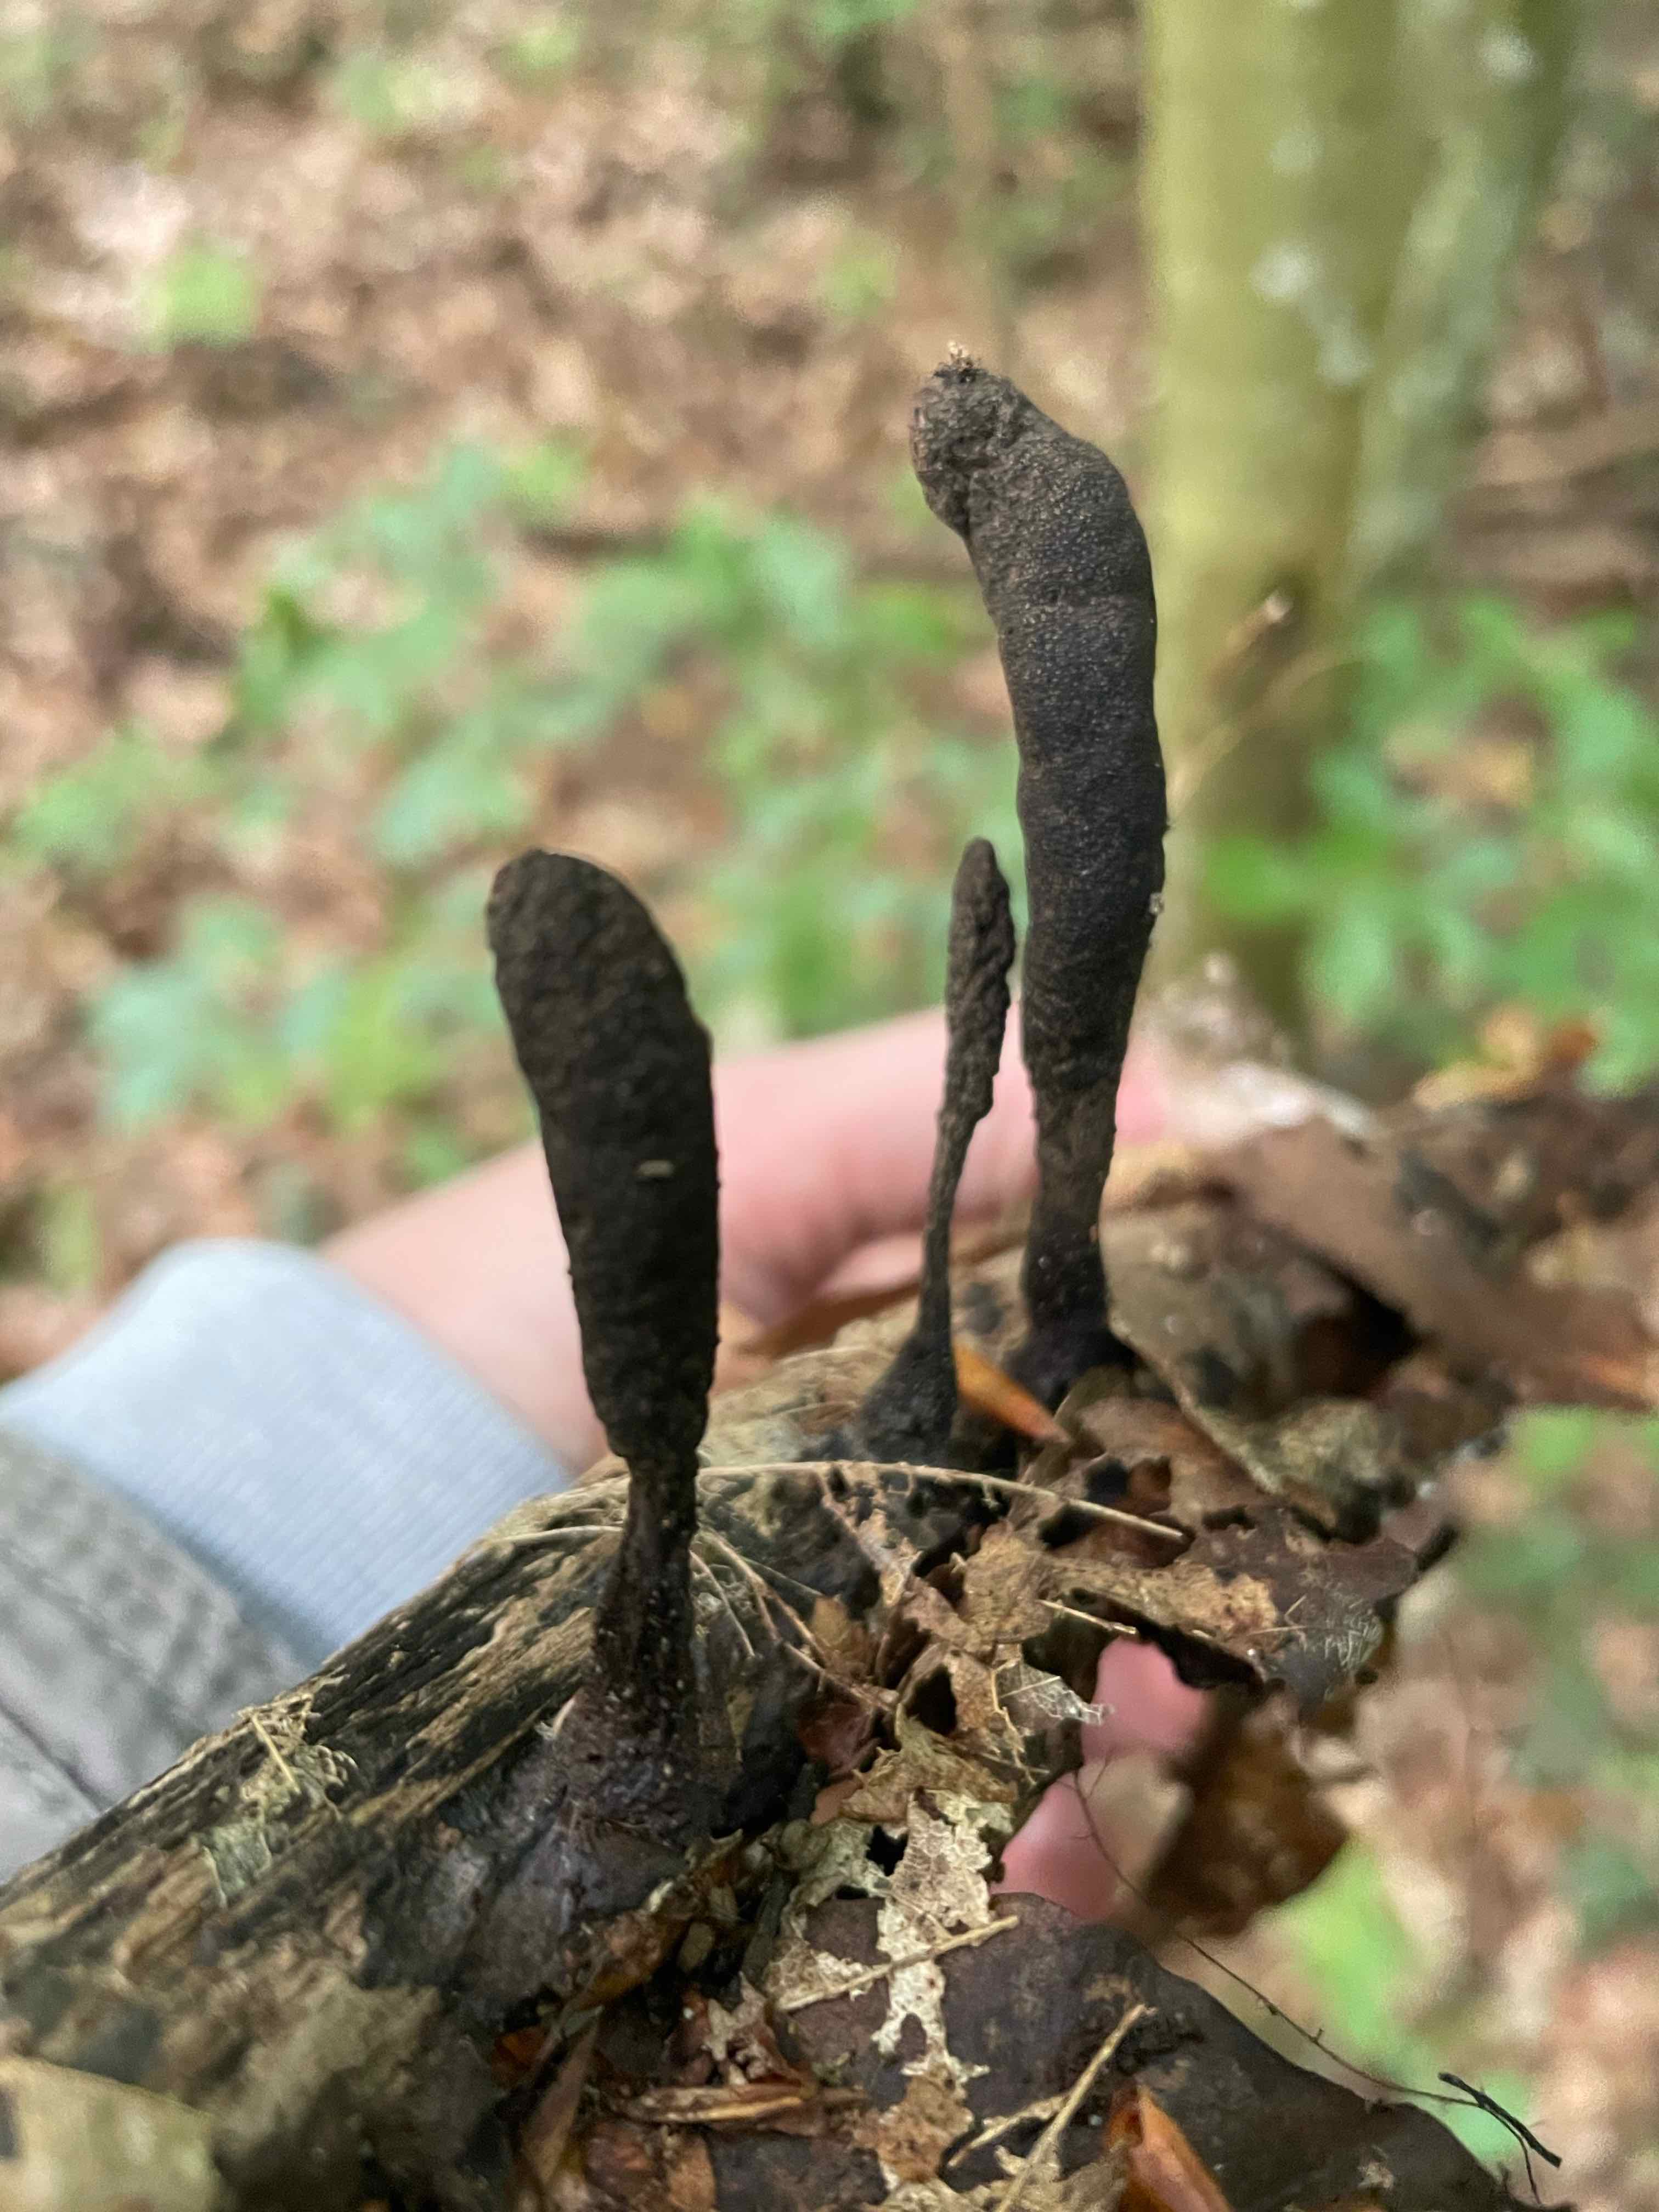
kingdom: Fungi
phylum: Ascomycota
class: Sordariomycetes
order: Xylariales
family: Xylariaceae
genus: Xylaria
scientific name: Xylaria longipes
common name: slank stødsvamp
